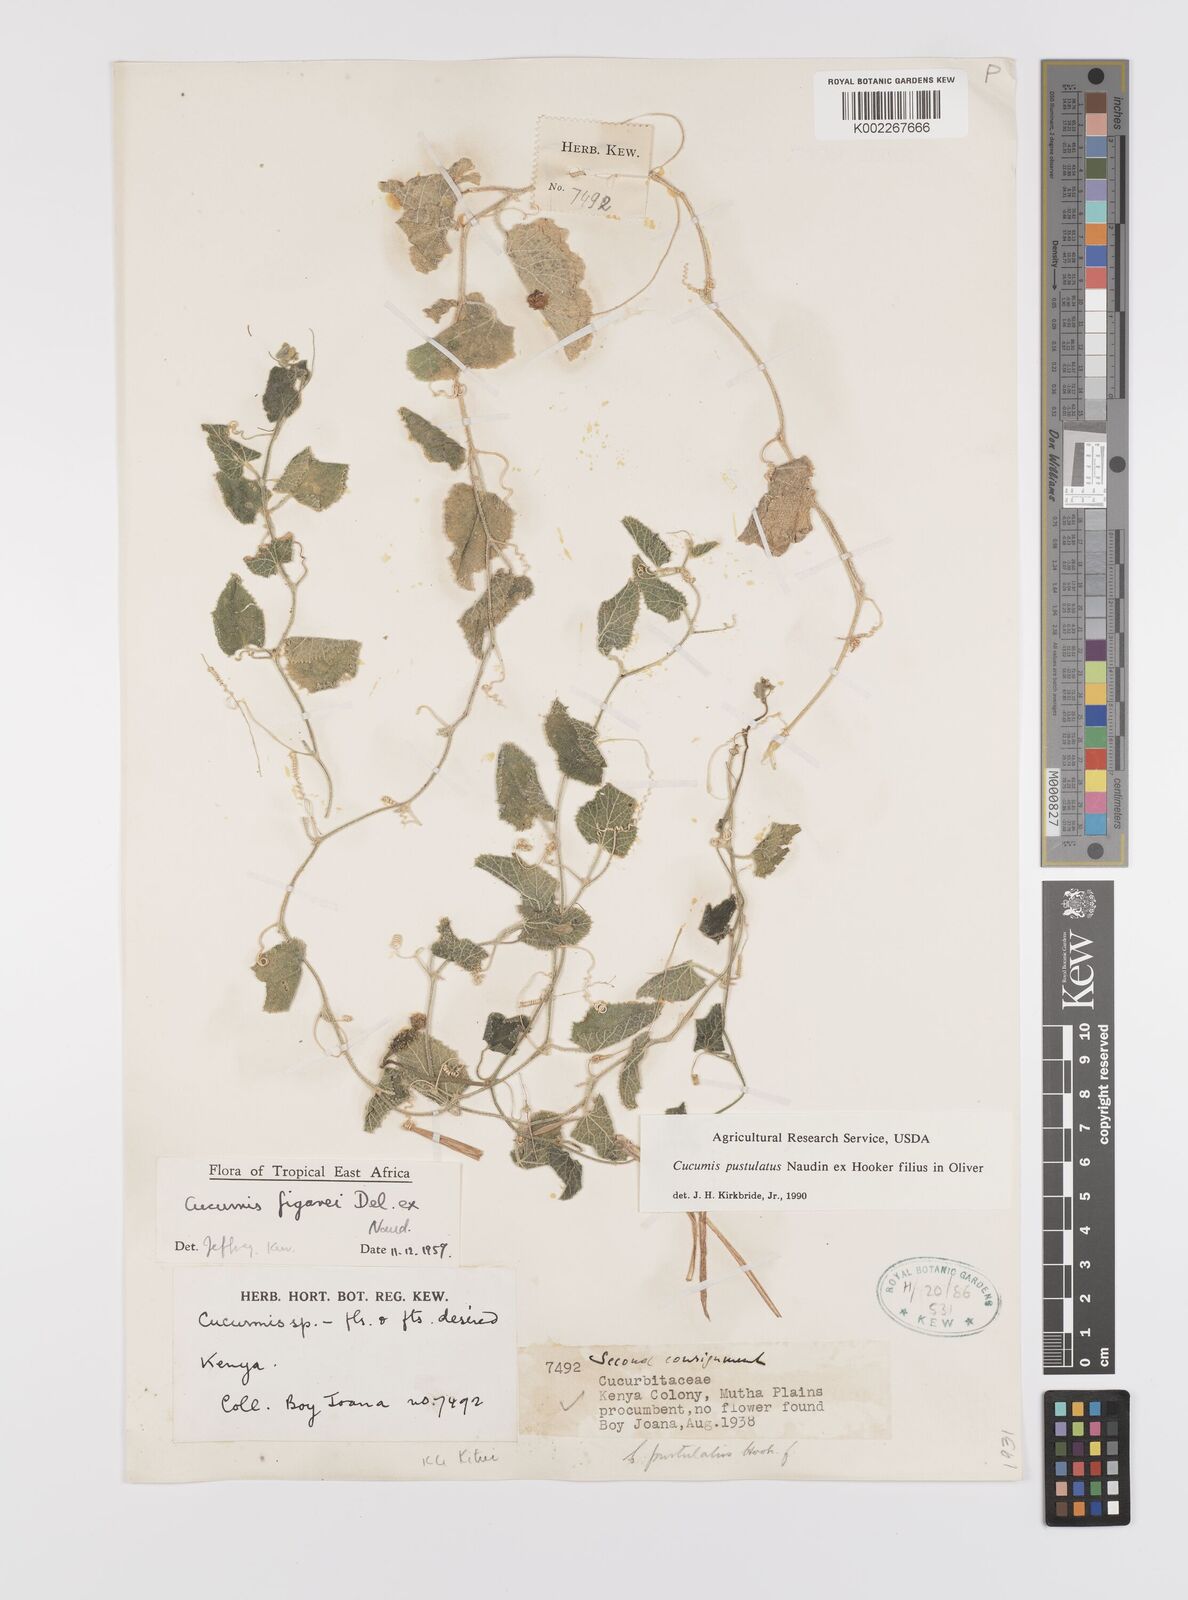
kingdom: Plantae
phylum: Tracheophyta
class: Magnoliopsida
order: Cucurbitales
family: Cucurbitaceae
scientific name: Cucurbitaceae
